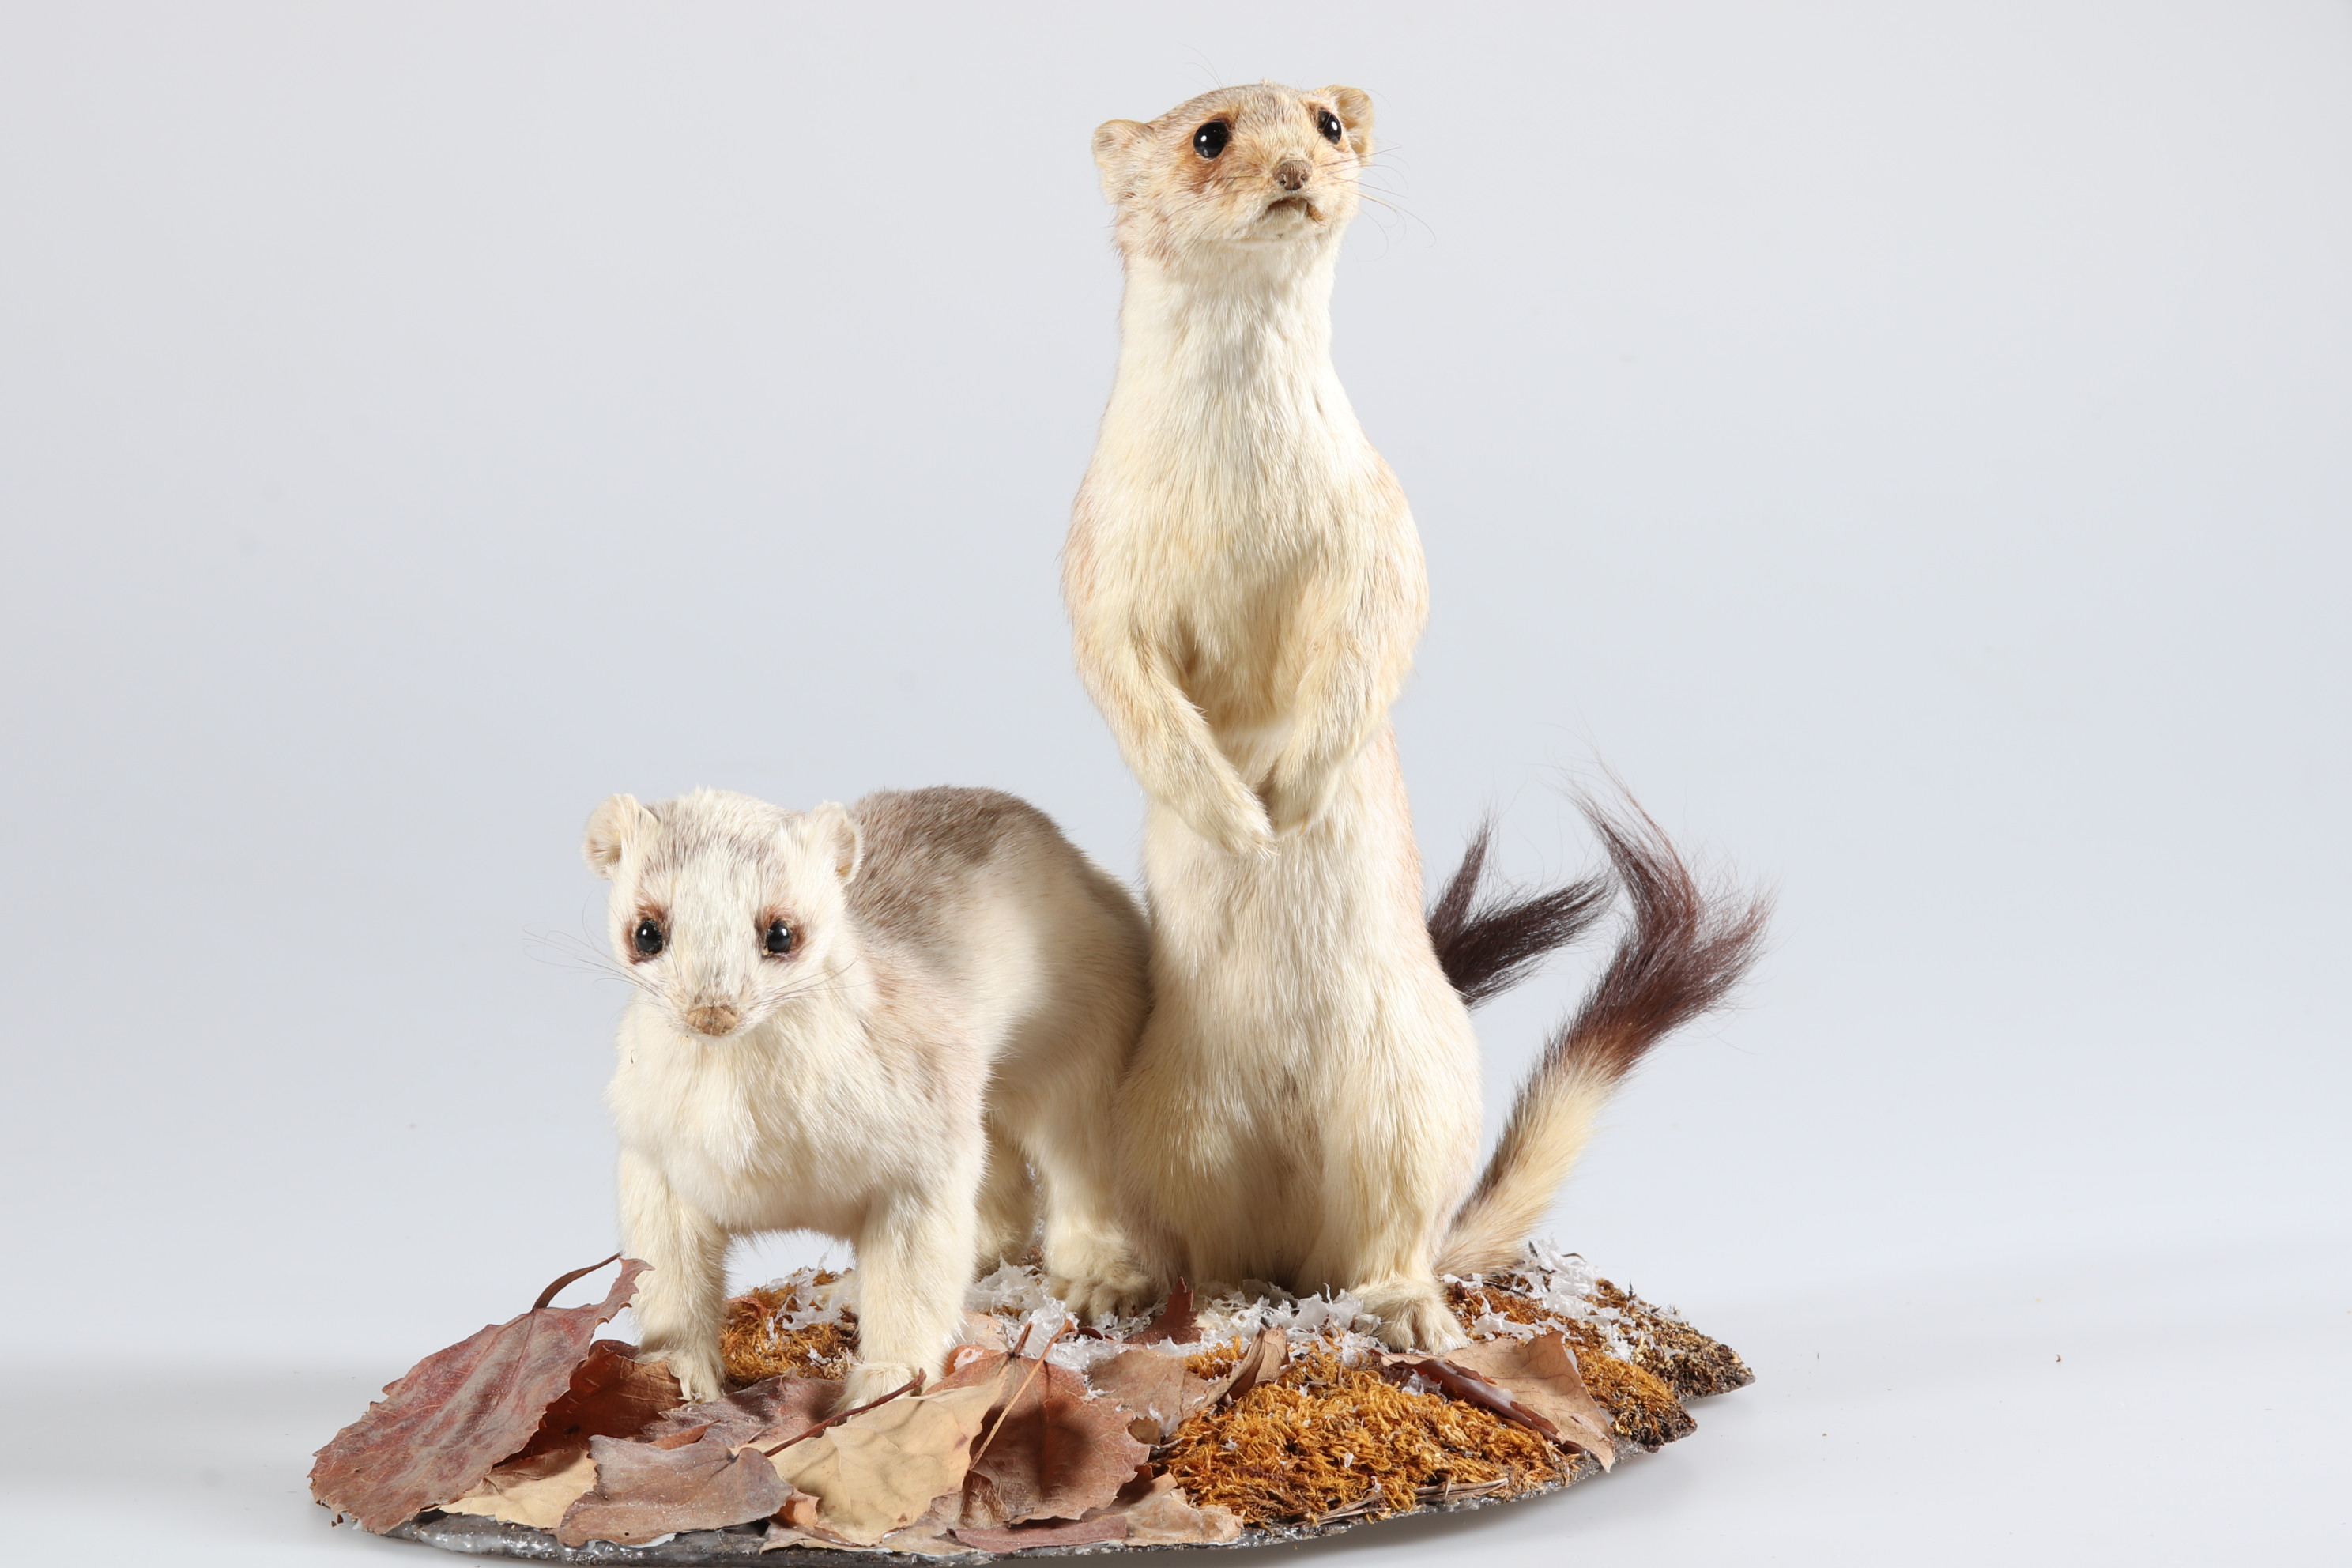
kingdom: Animalia
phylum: Chordata
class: Mammalia
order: Carnivora
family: Mustelidae
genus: Mustela
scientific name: Mustela erminea
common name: Stoat
